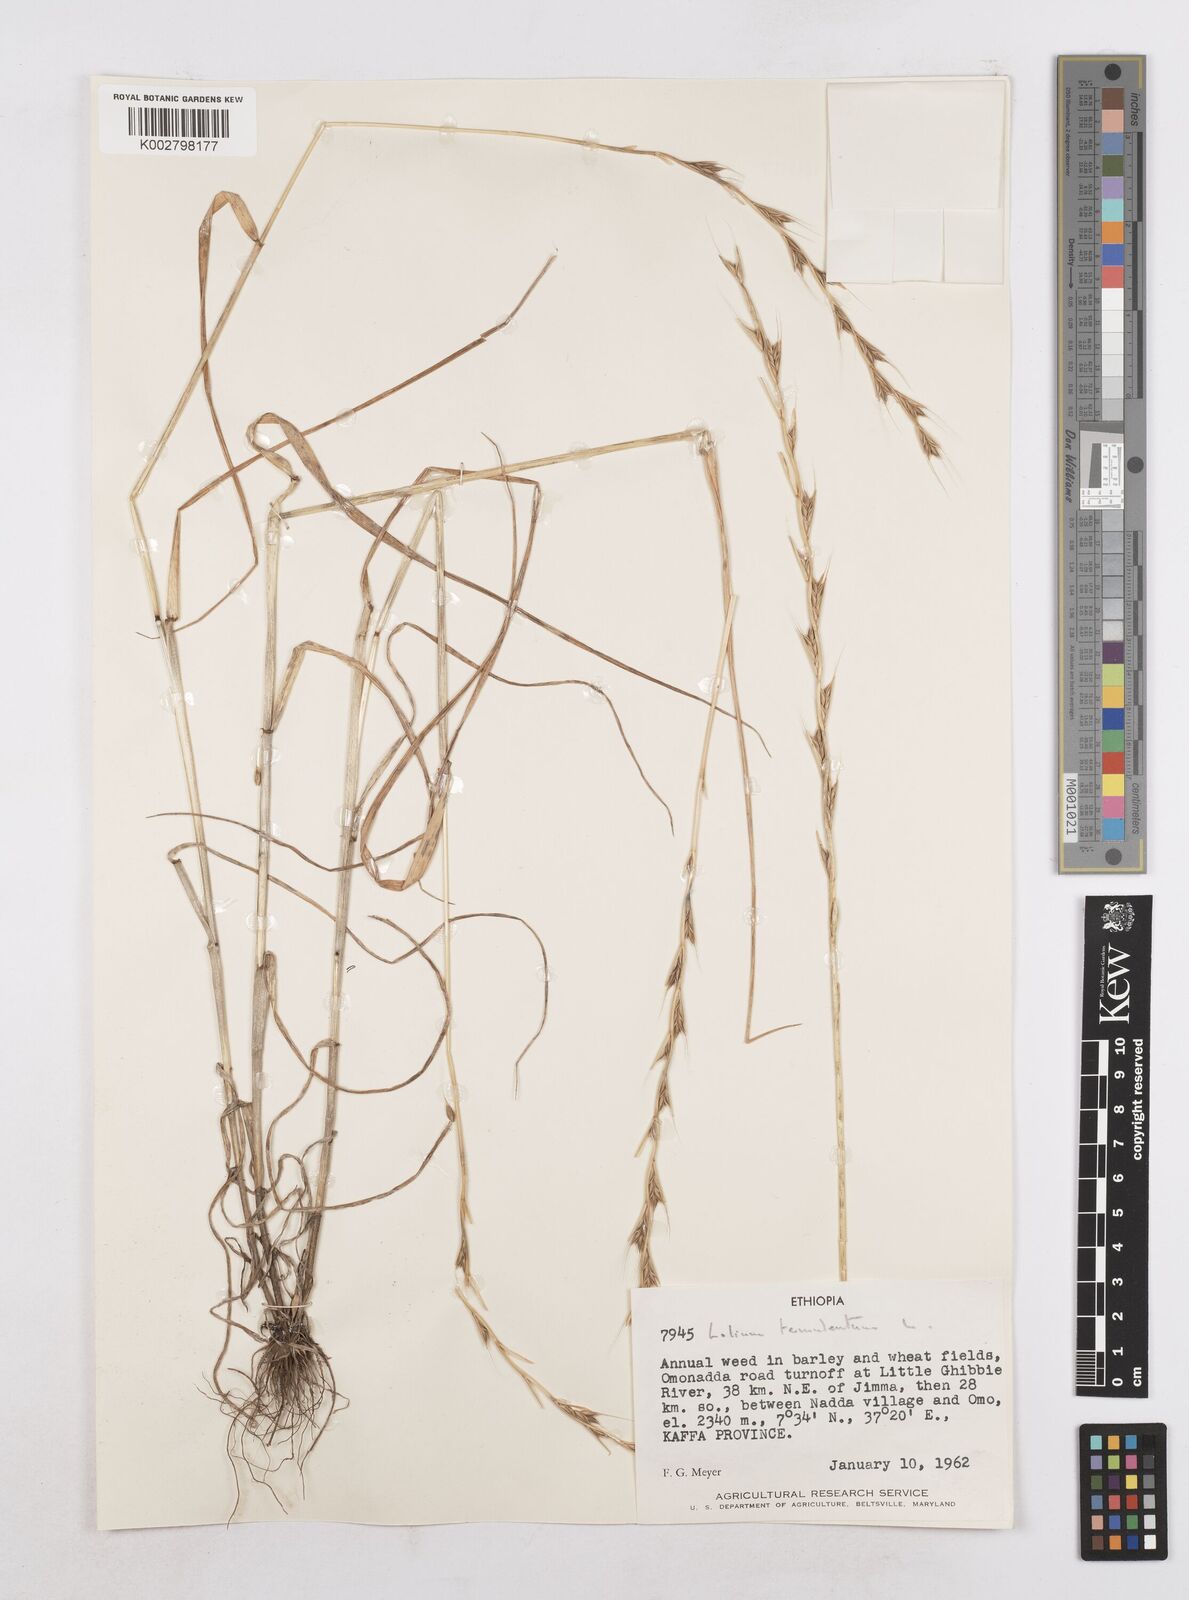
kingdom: Plantae
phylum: Tracheophyta
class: Liliopsida
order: Poales
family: Poaceae
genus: Lolium
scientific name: Lolium temulentum
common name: Darnel
